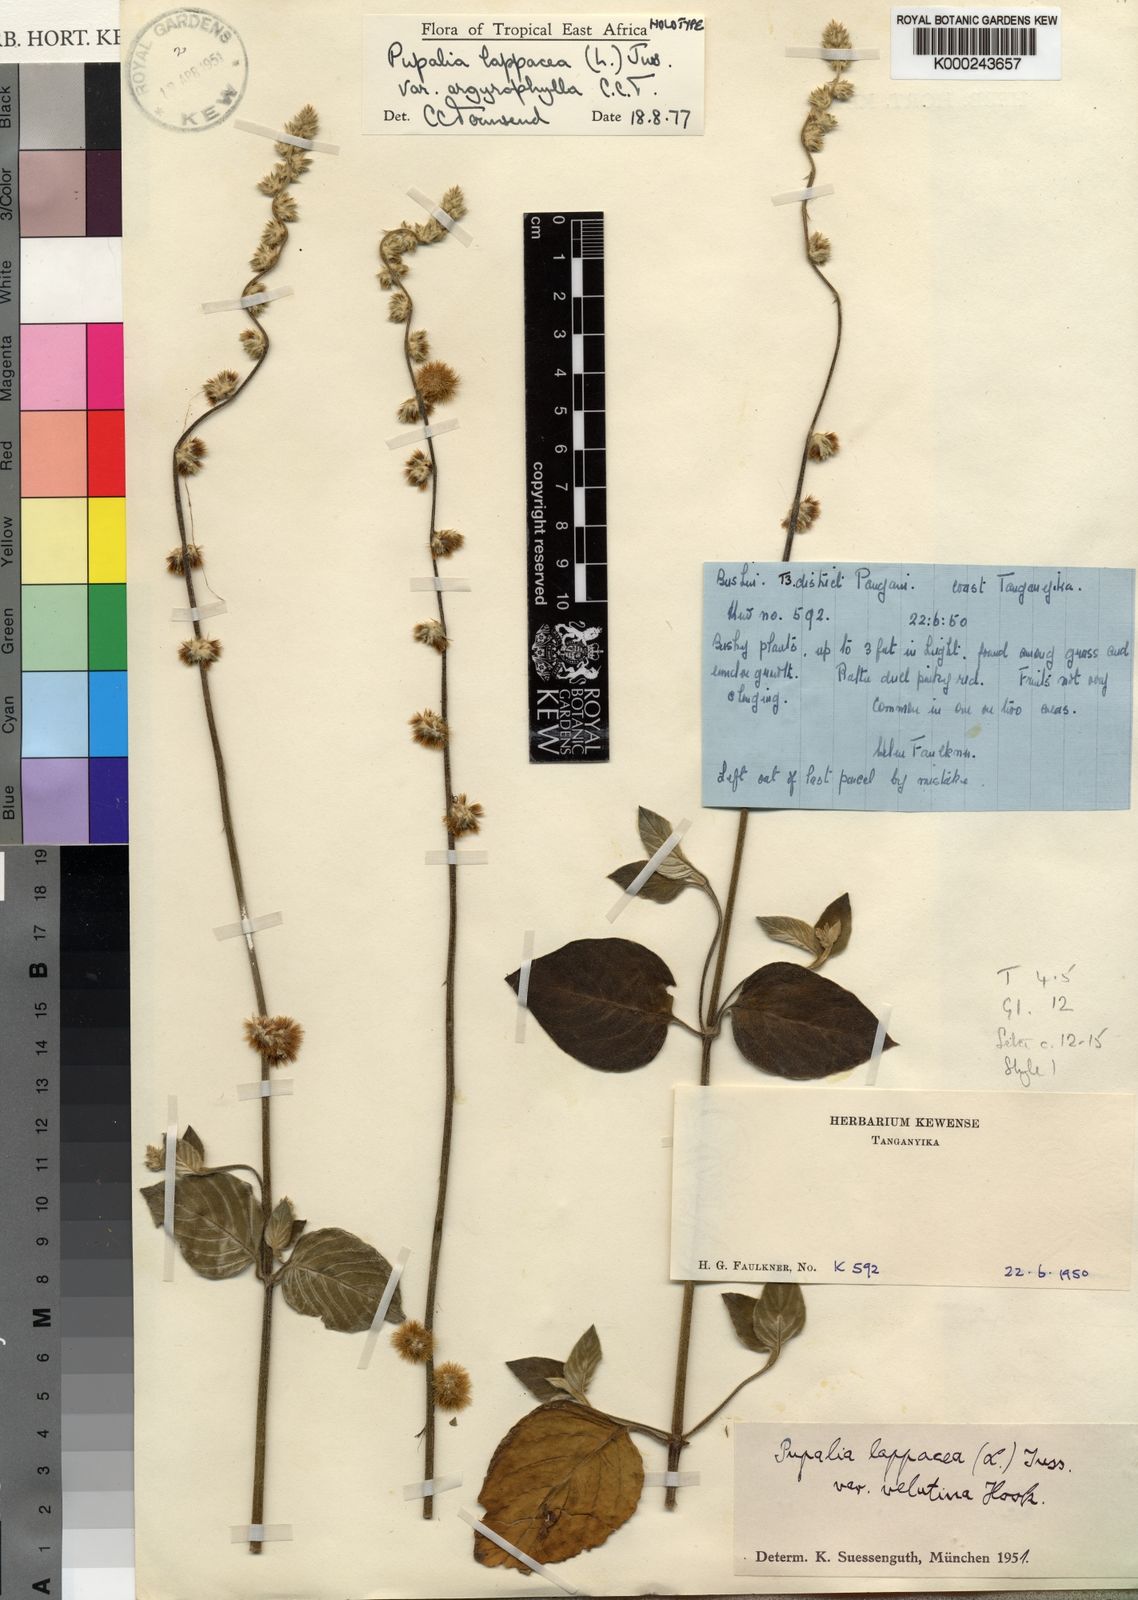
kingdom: Plantae
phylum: Tracheophyta
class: Magnoliopsida
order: Caryophyllales
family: Amaranthaceae
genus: Pupalia
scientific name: Pupalia lappacea
